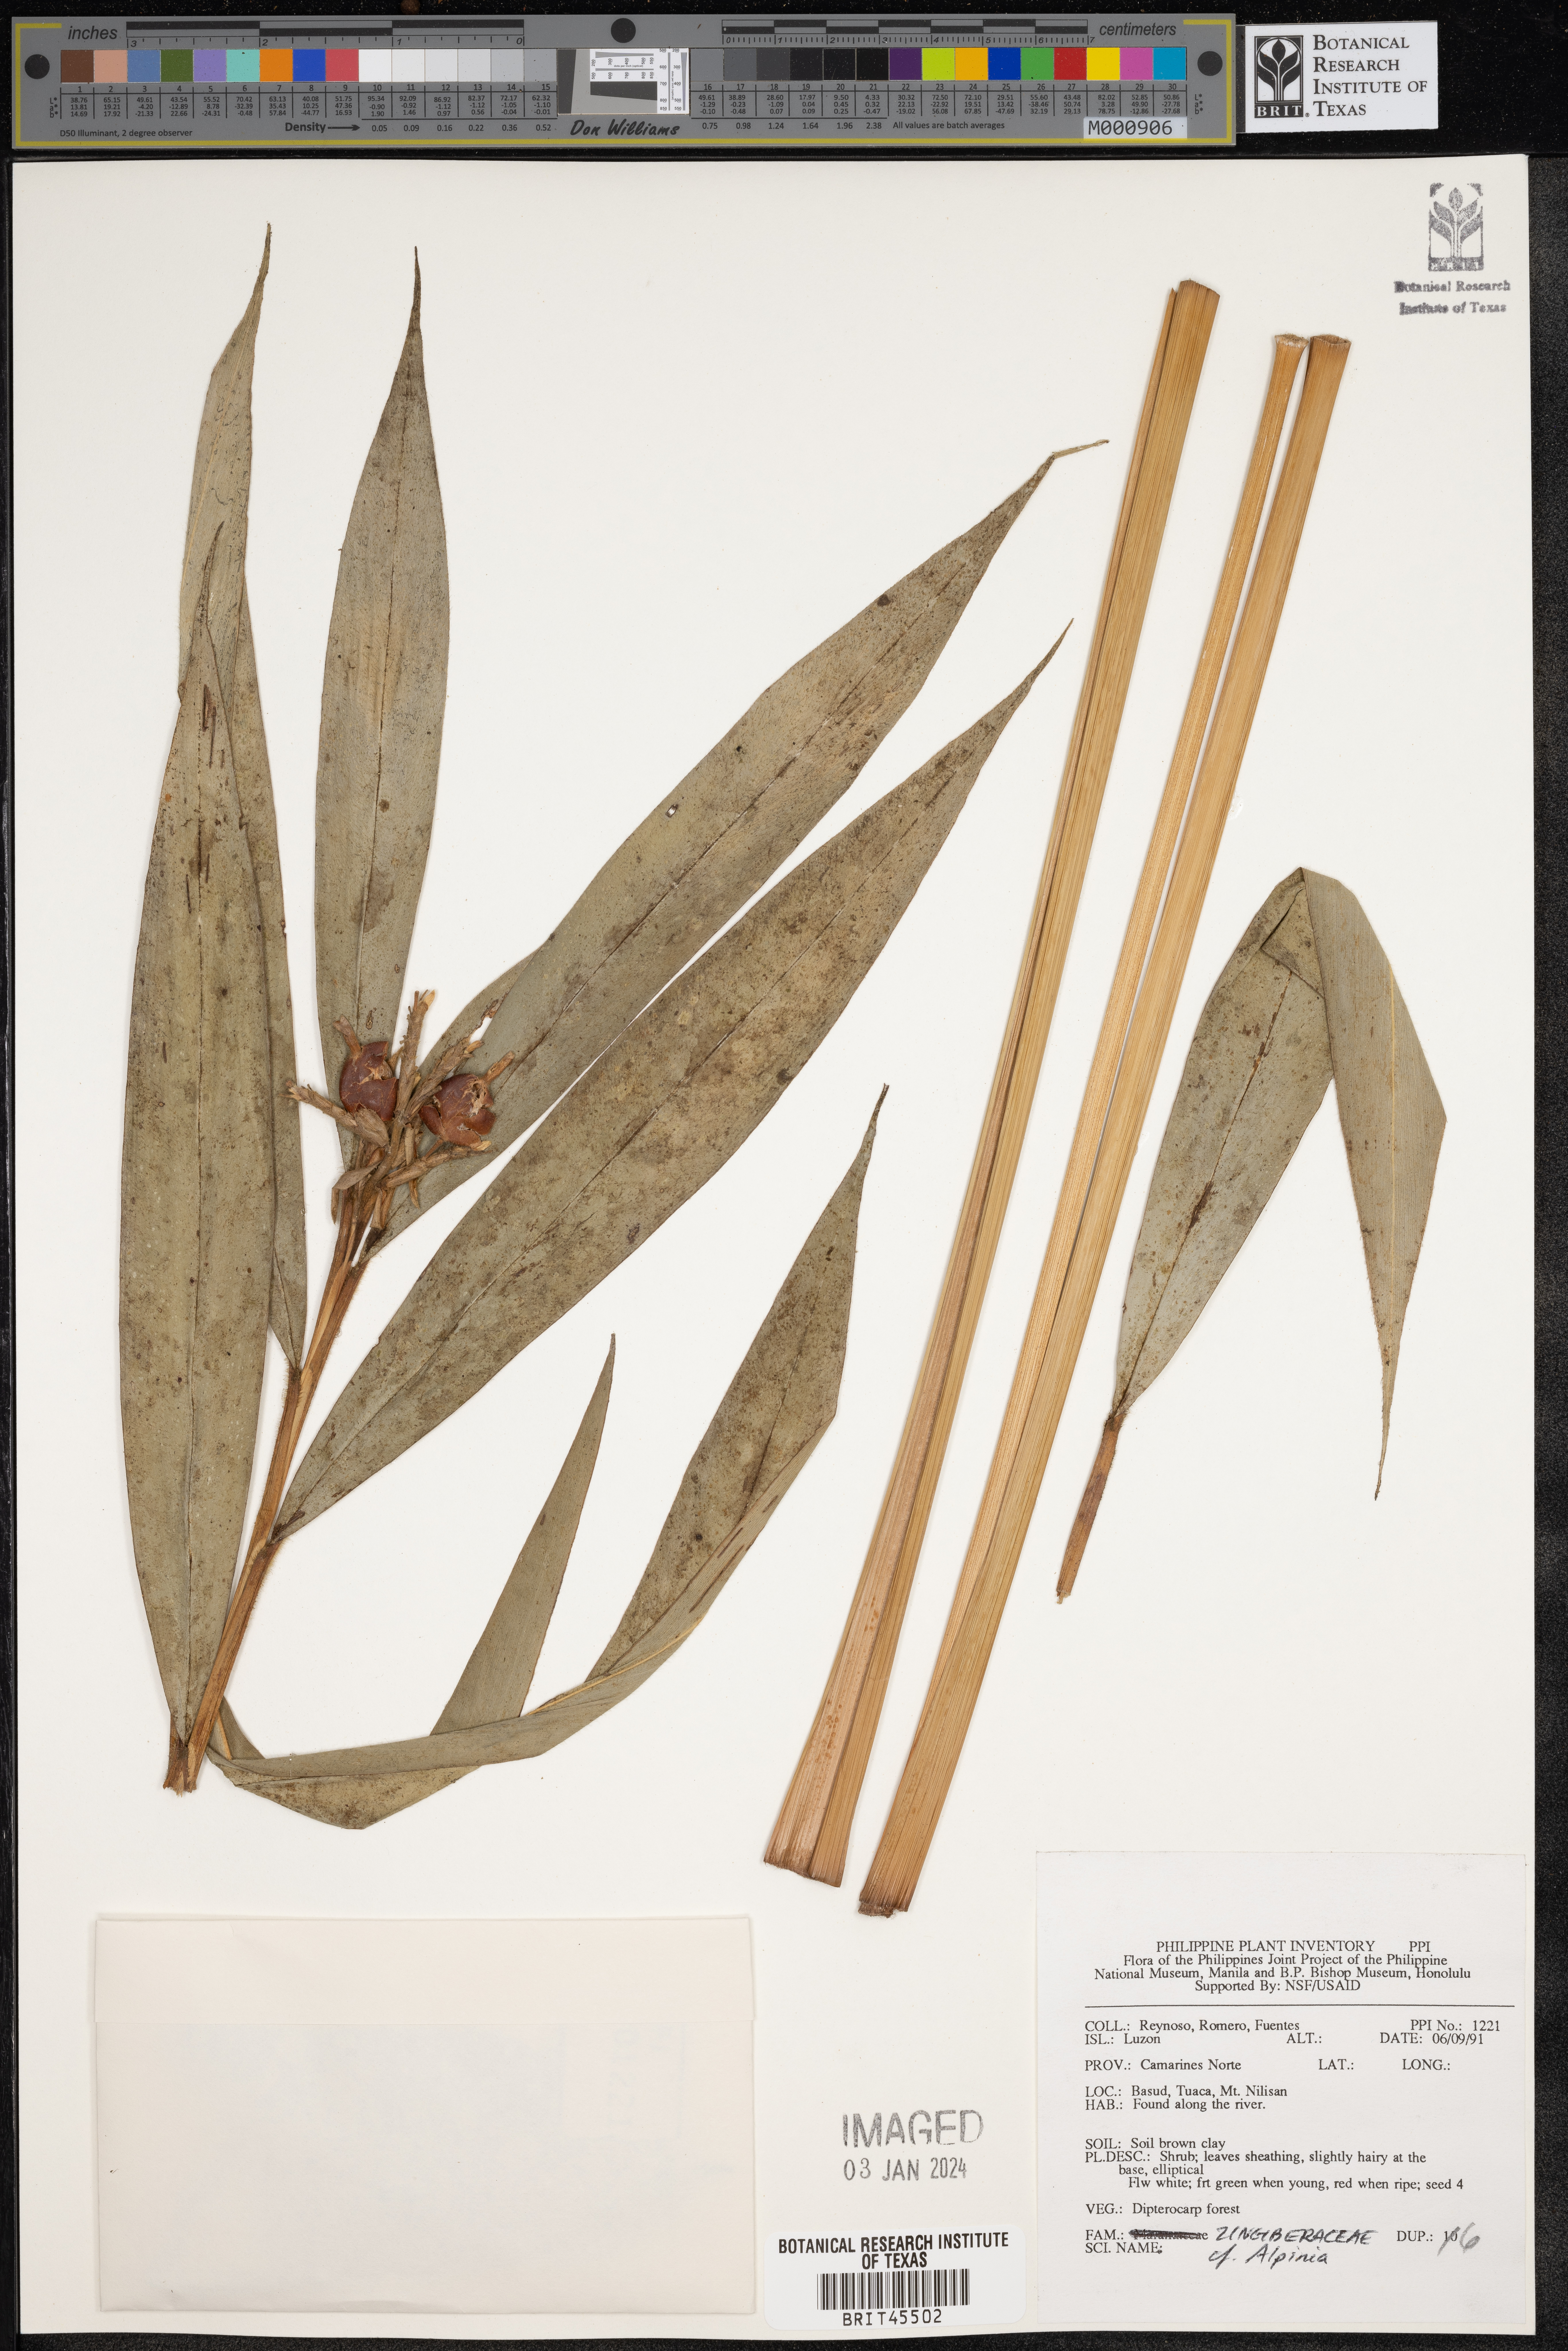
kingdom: Plantae
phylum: Tracheophyta
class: Liliopsida
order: Zingiberales
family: Zingiberaceae
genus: Alpinia
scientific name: Alpinia
